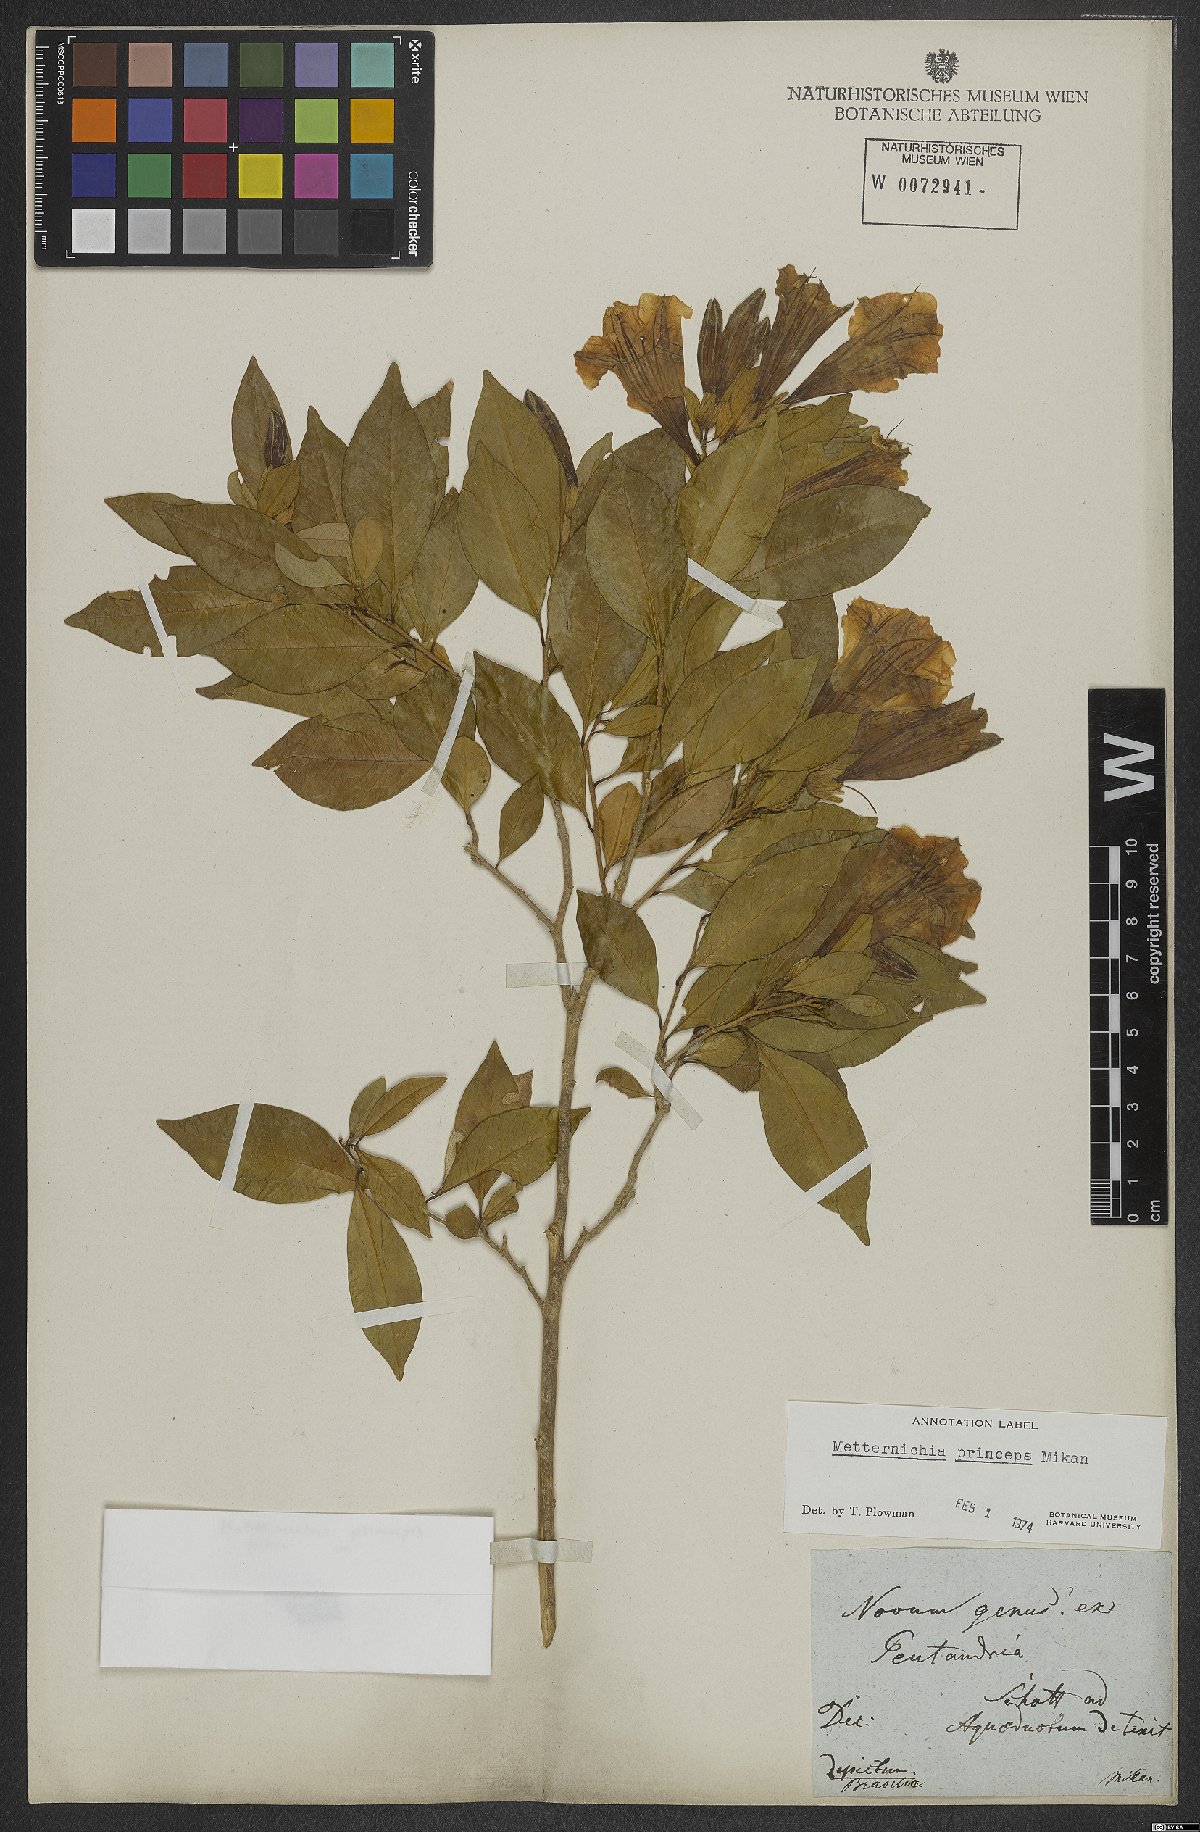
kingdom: Plantae
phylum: Tracheophyta
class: Magnoliopsida
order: Solanales
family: Solanaceae
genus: Metternichia
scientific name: Metternichia principis
